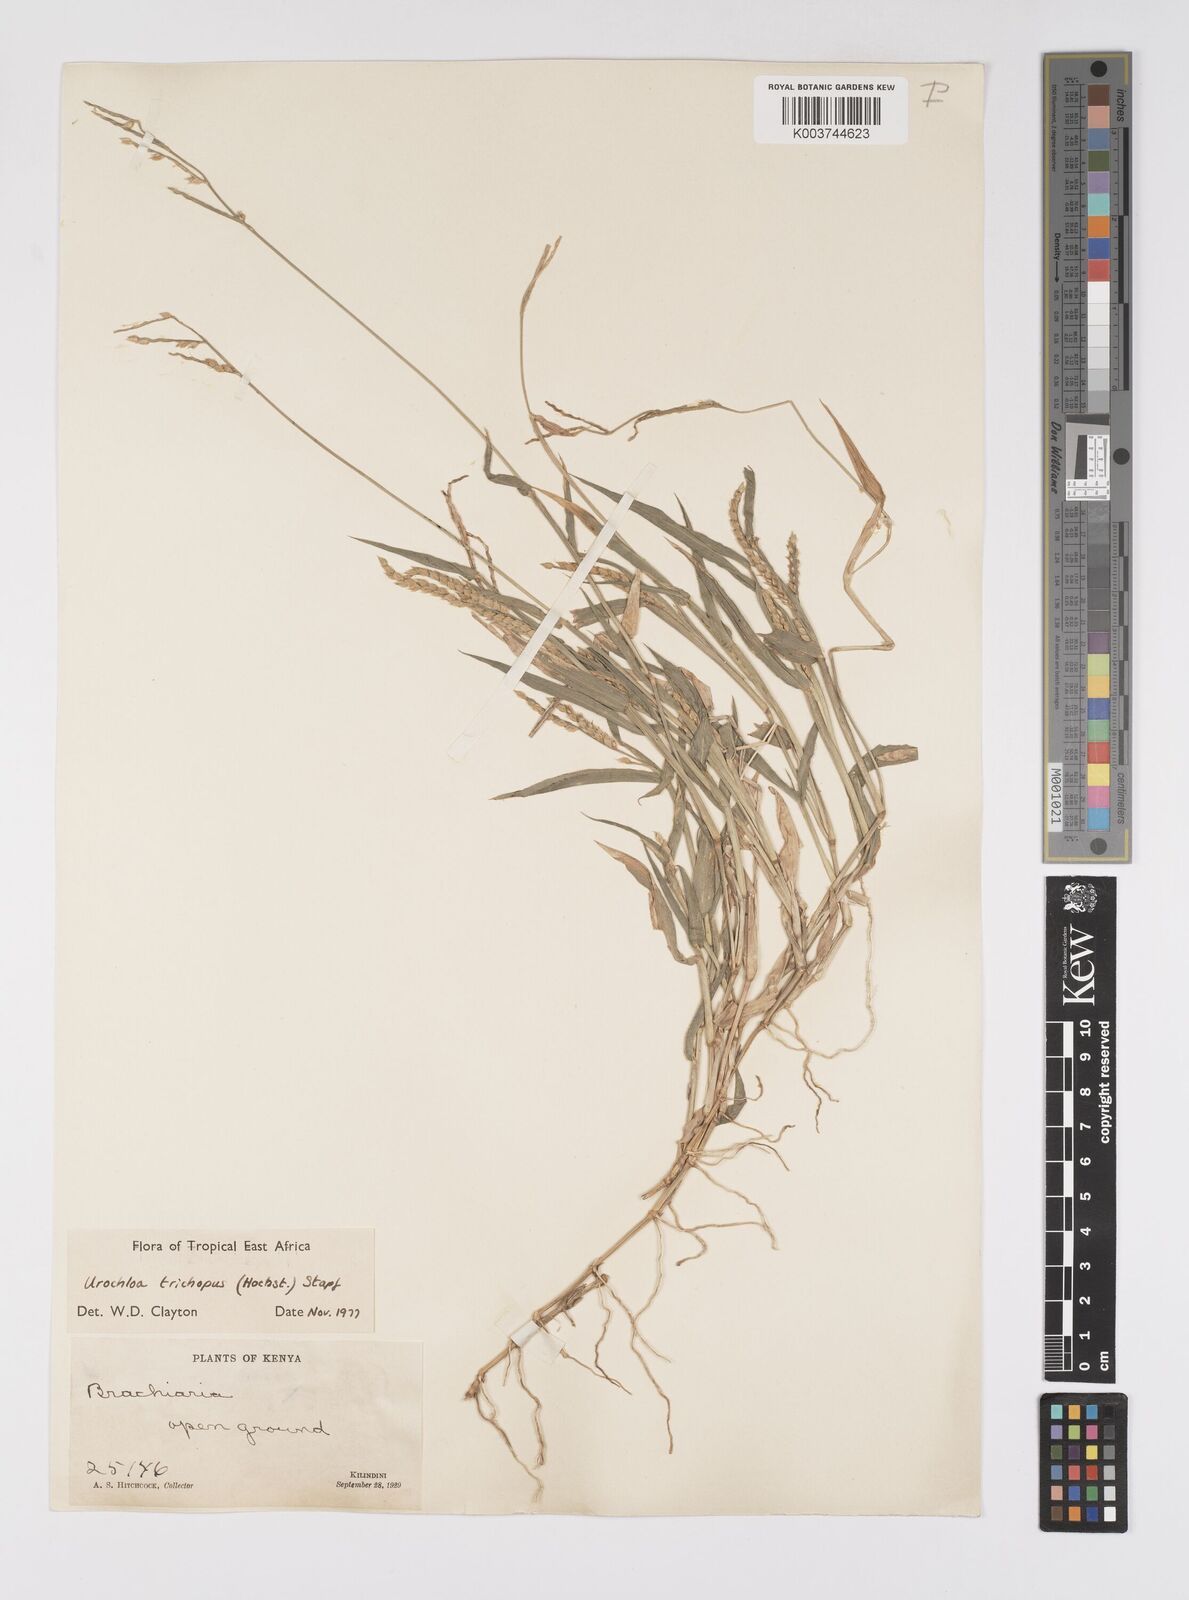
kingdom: Plantae
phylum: Tracheophyta
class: Liliopsida
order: Poales
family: Poaceae
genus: Urochloa
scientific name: Urochloa trichopus
